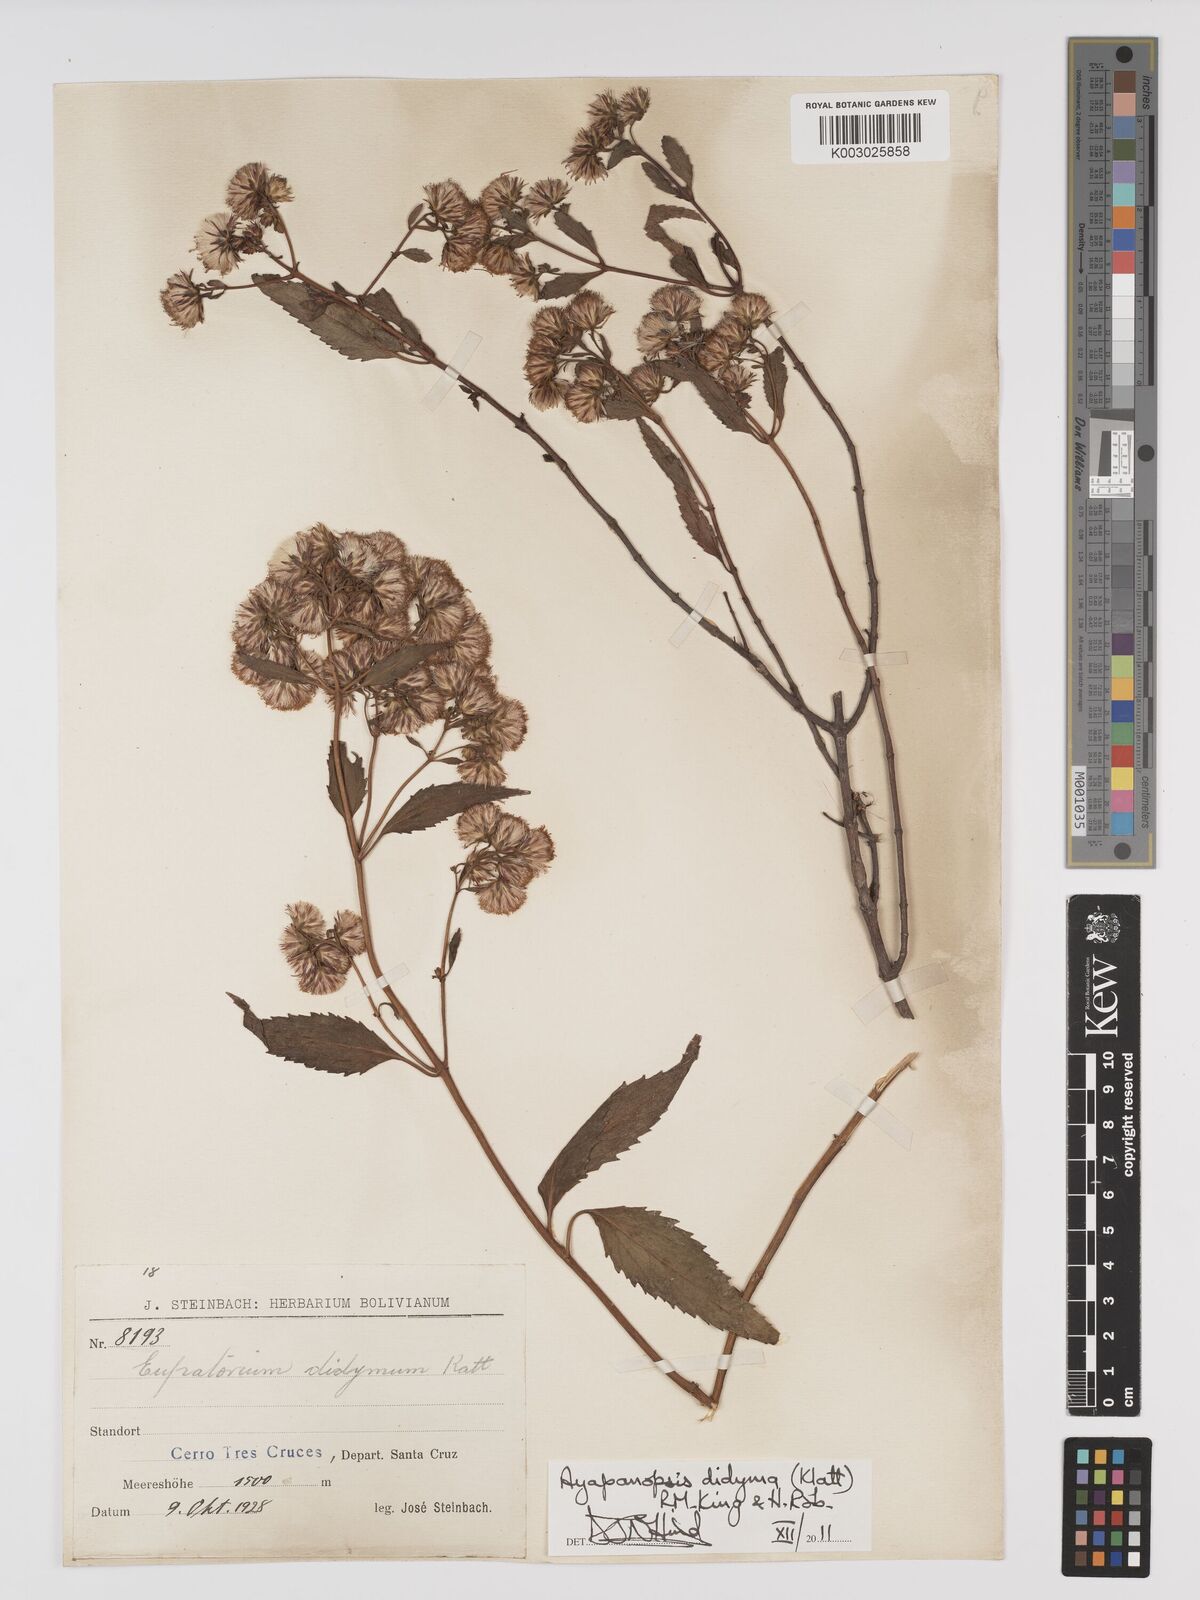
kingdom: Plantae
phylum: Tracheophyta
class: Magnoliopsida
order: Asterales
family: Asteraceae
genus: Heterocondylus
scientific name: Heterocondylus didymus
